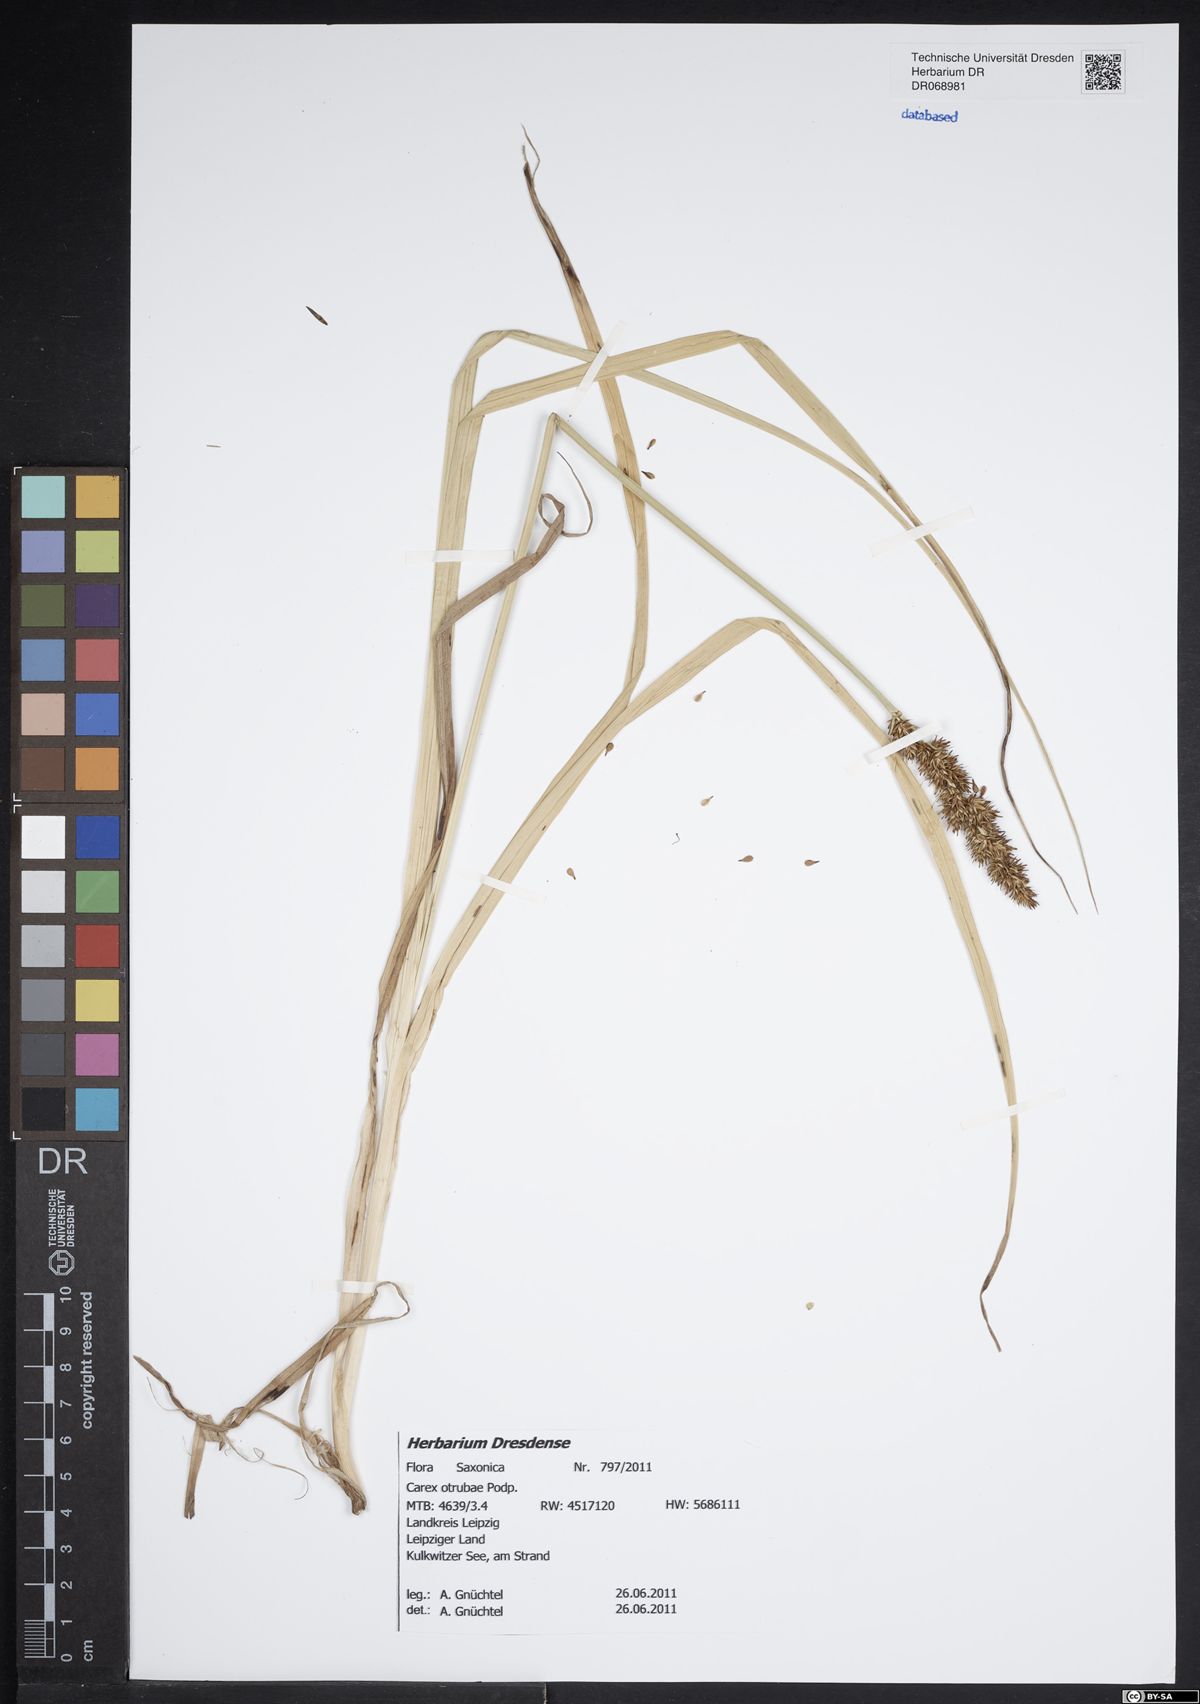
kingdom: Plantae
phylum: Tracheophyta
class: Liliopsida
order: Poales
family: Cyperaceae
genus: Carex
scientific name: Carex otrubae
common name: False fox-sedge
